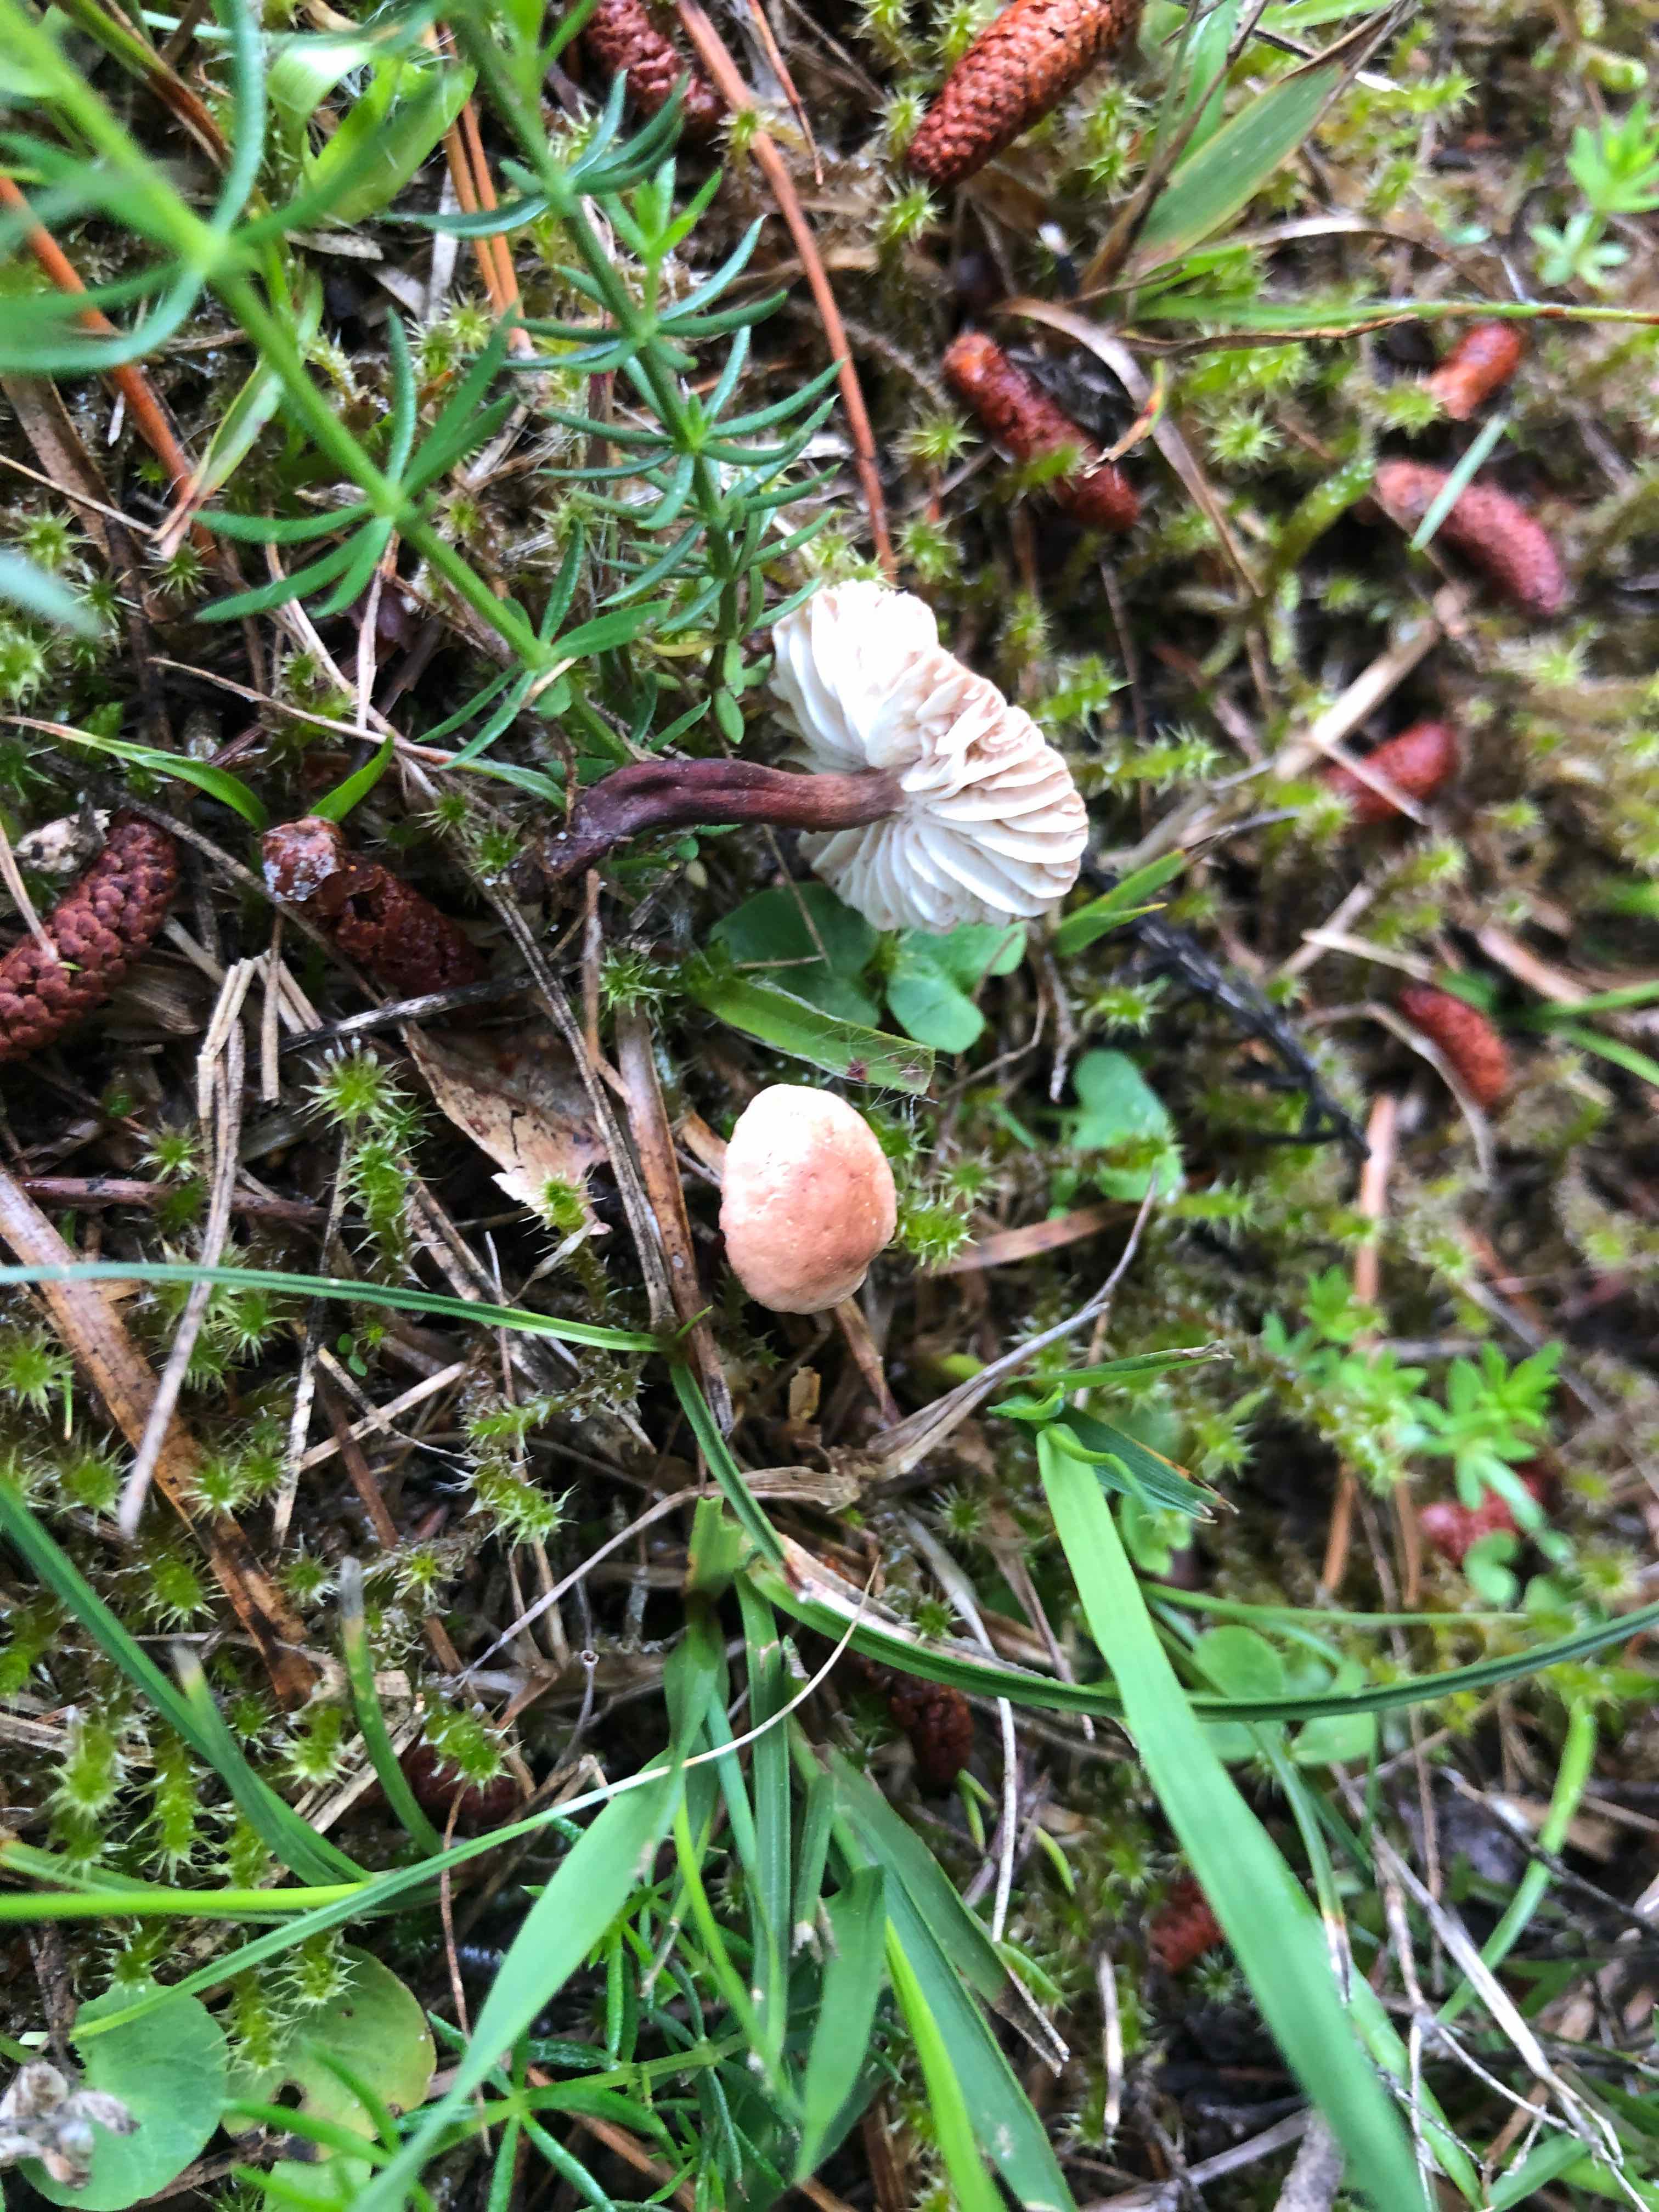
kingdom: Fungi
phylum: Basidiomycota
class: Agaricomycetes
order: Agaricales
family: Omphalotaceae
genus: Mycetinis
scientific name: Mycetinis scorodonius
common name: lille løghat
